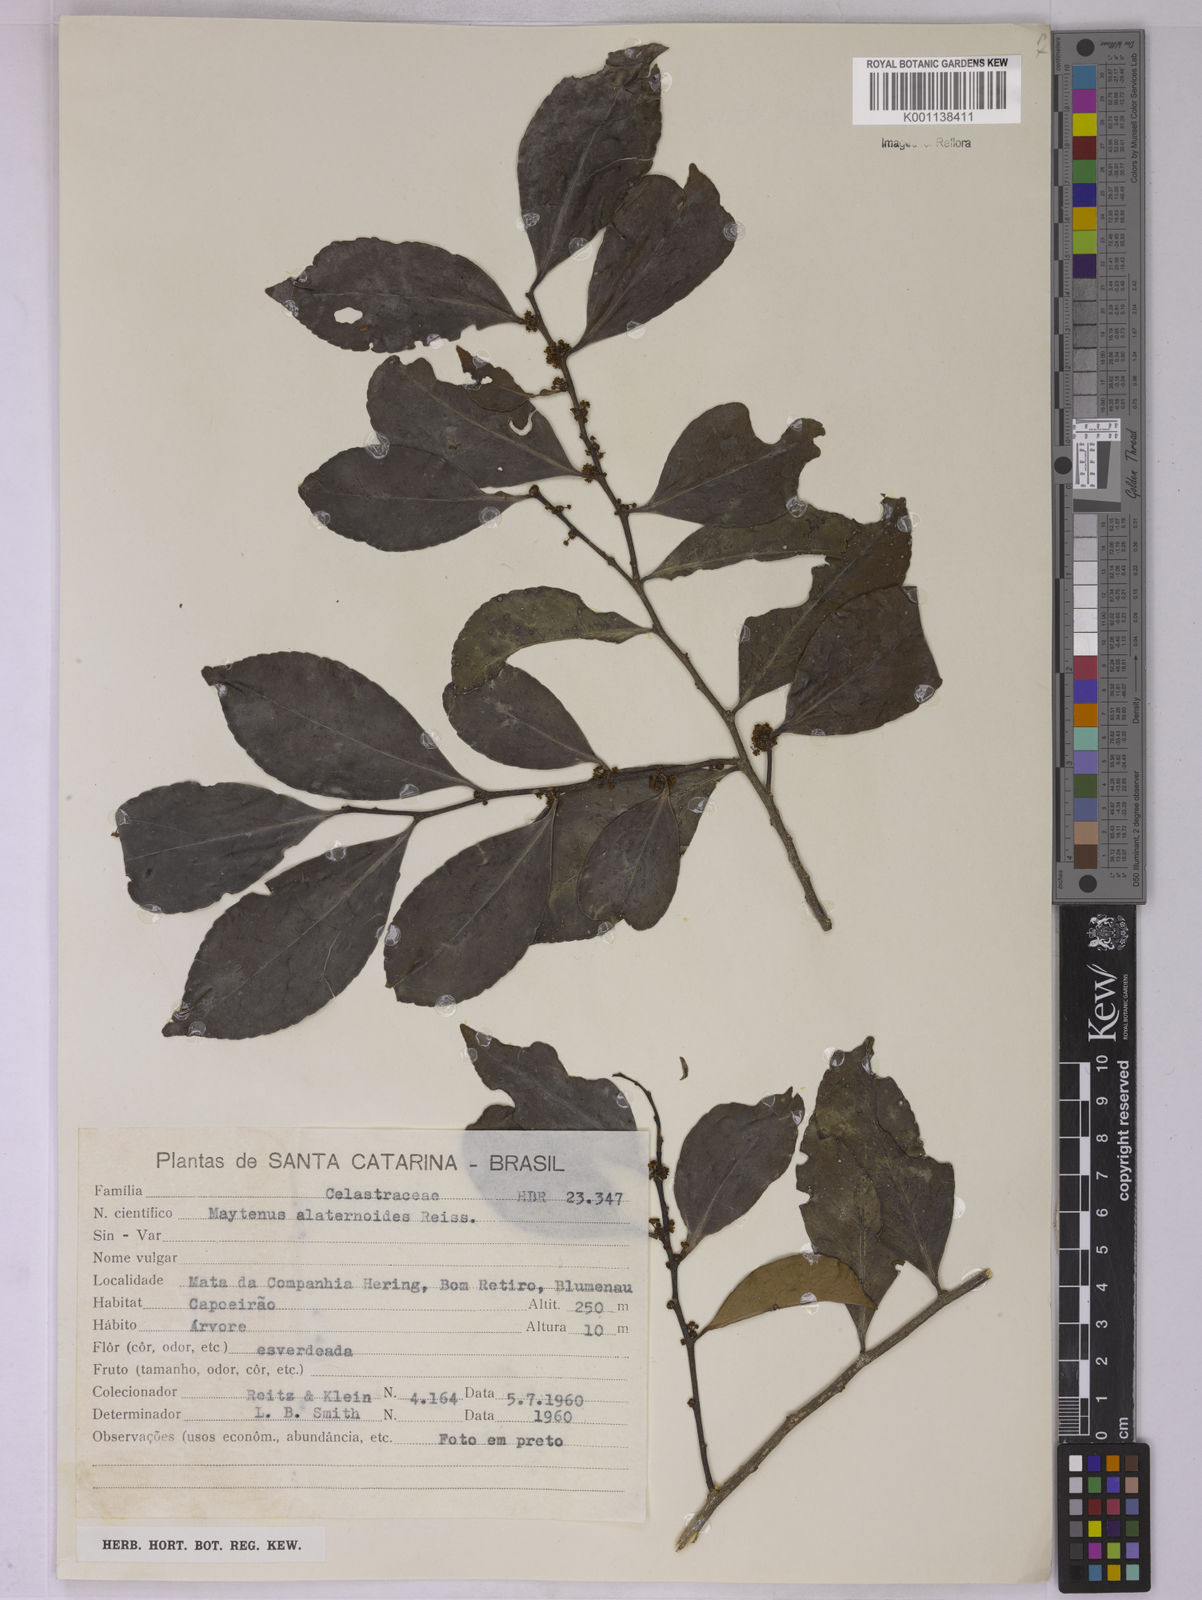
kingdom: Plantae
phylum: Tracheophyta
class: Magnoliopsida
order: Celastrales
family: Celastraceae
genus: Maytenus
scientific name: Maytenus alaternoides
